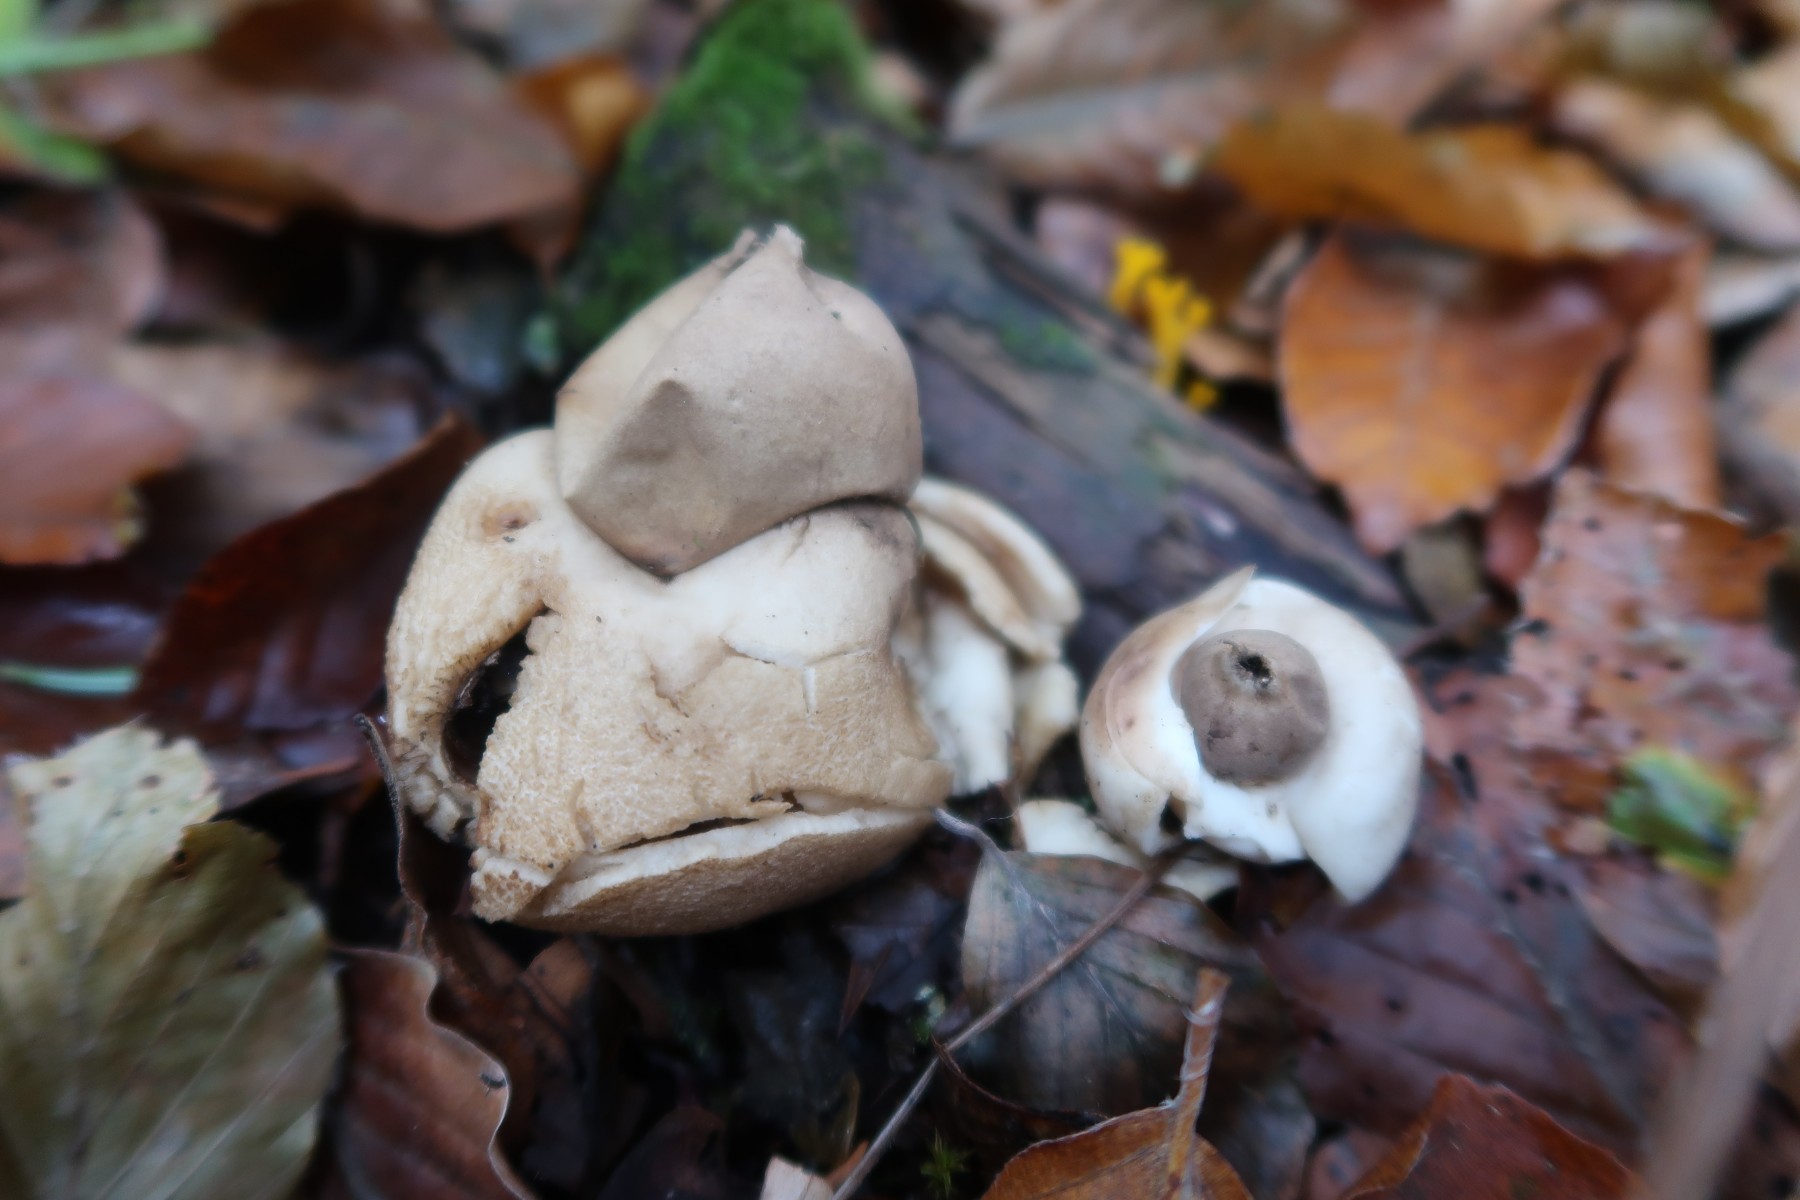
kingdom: Fungi
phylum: Basidiomycota
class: Agaricomycetes
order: Geastrales
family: Geastraceae
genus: Geastrum
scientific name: Geastrum michelianum
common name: kødet stjernebold
